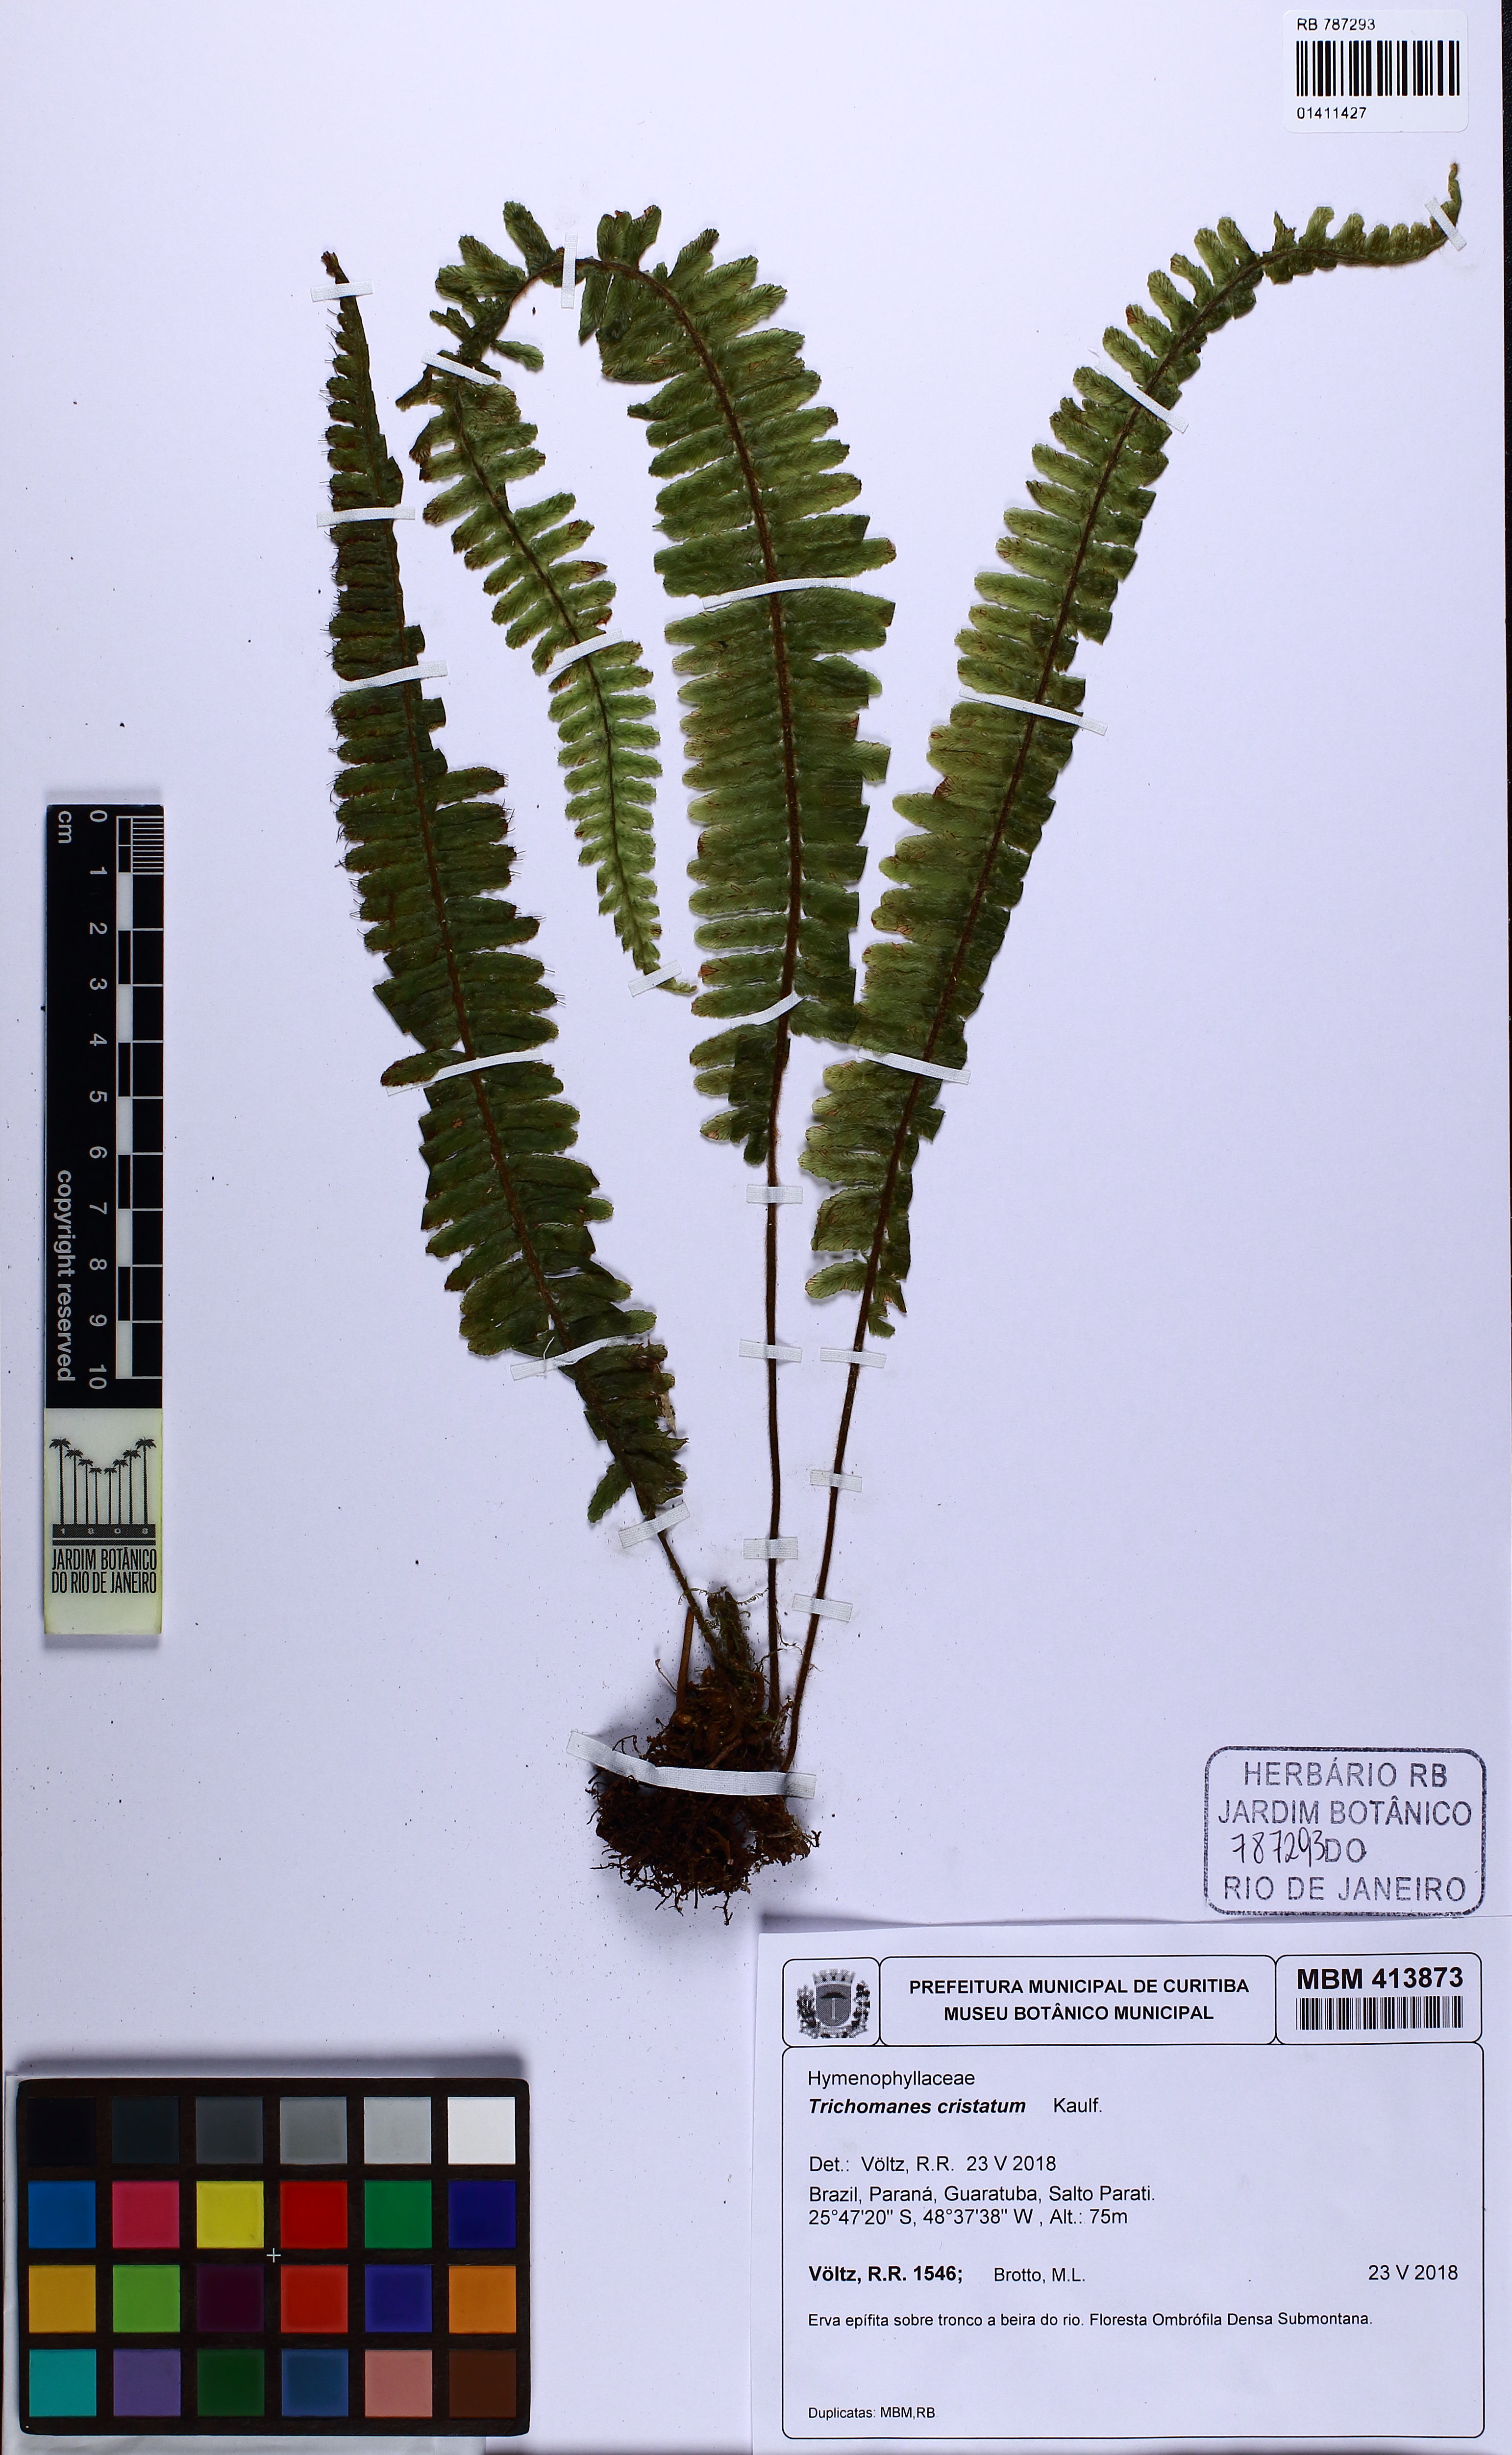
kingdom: Plantae
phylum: Tracheophyta
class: Polypodiopsida
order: Hymenophyllales
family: Hymenophyllaceae
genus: Trichomanes
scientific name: Trichomanes cristatum
